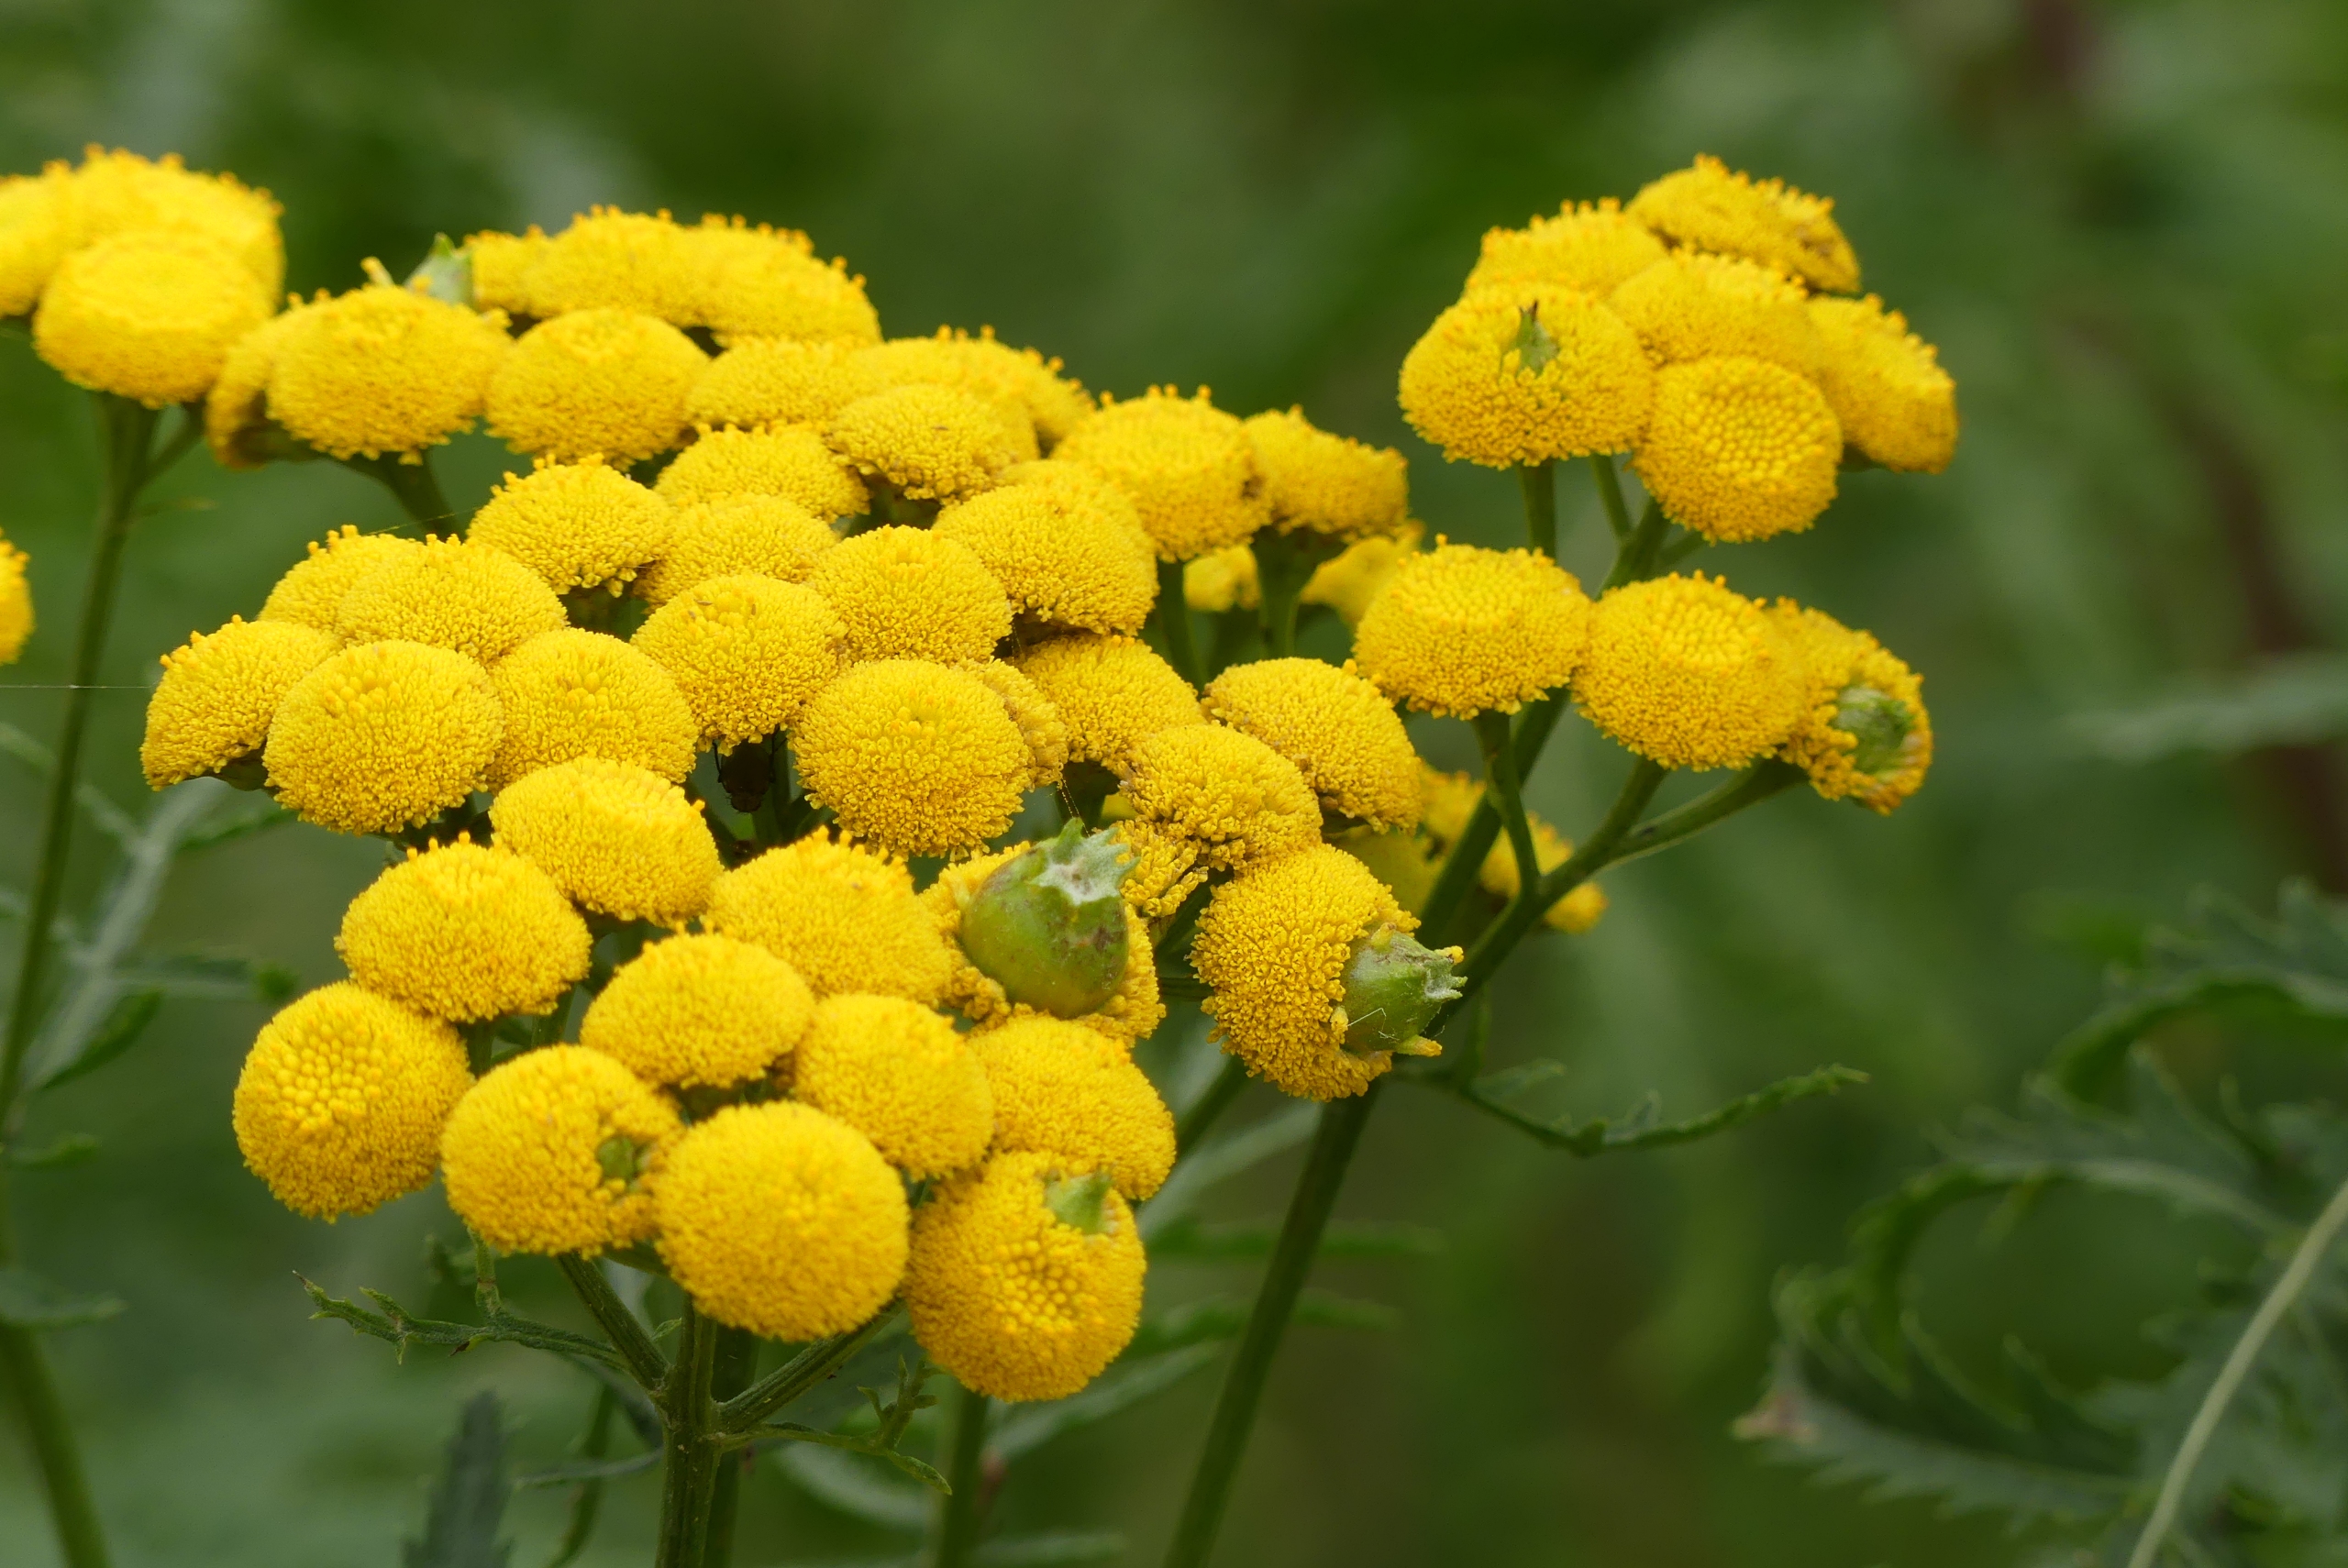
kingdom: Animalia
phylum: Arthropoda
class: Insecta
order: Diptera
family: Cecidomyiidae
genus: Rhopalomyia
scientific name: Rhopalomyia tanaceticolus
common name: Rejnfangalmyg
